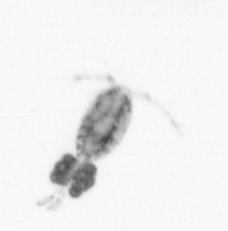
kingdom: Animalia
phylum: Arthropoda
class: Copepoda
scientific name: Copepoda
